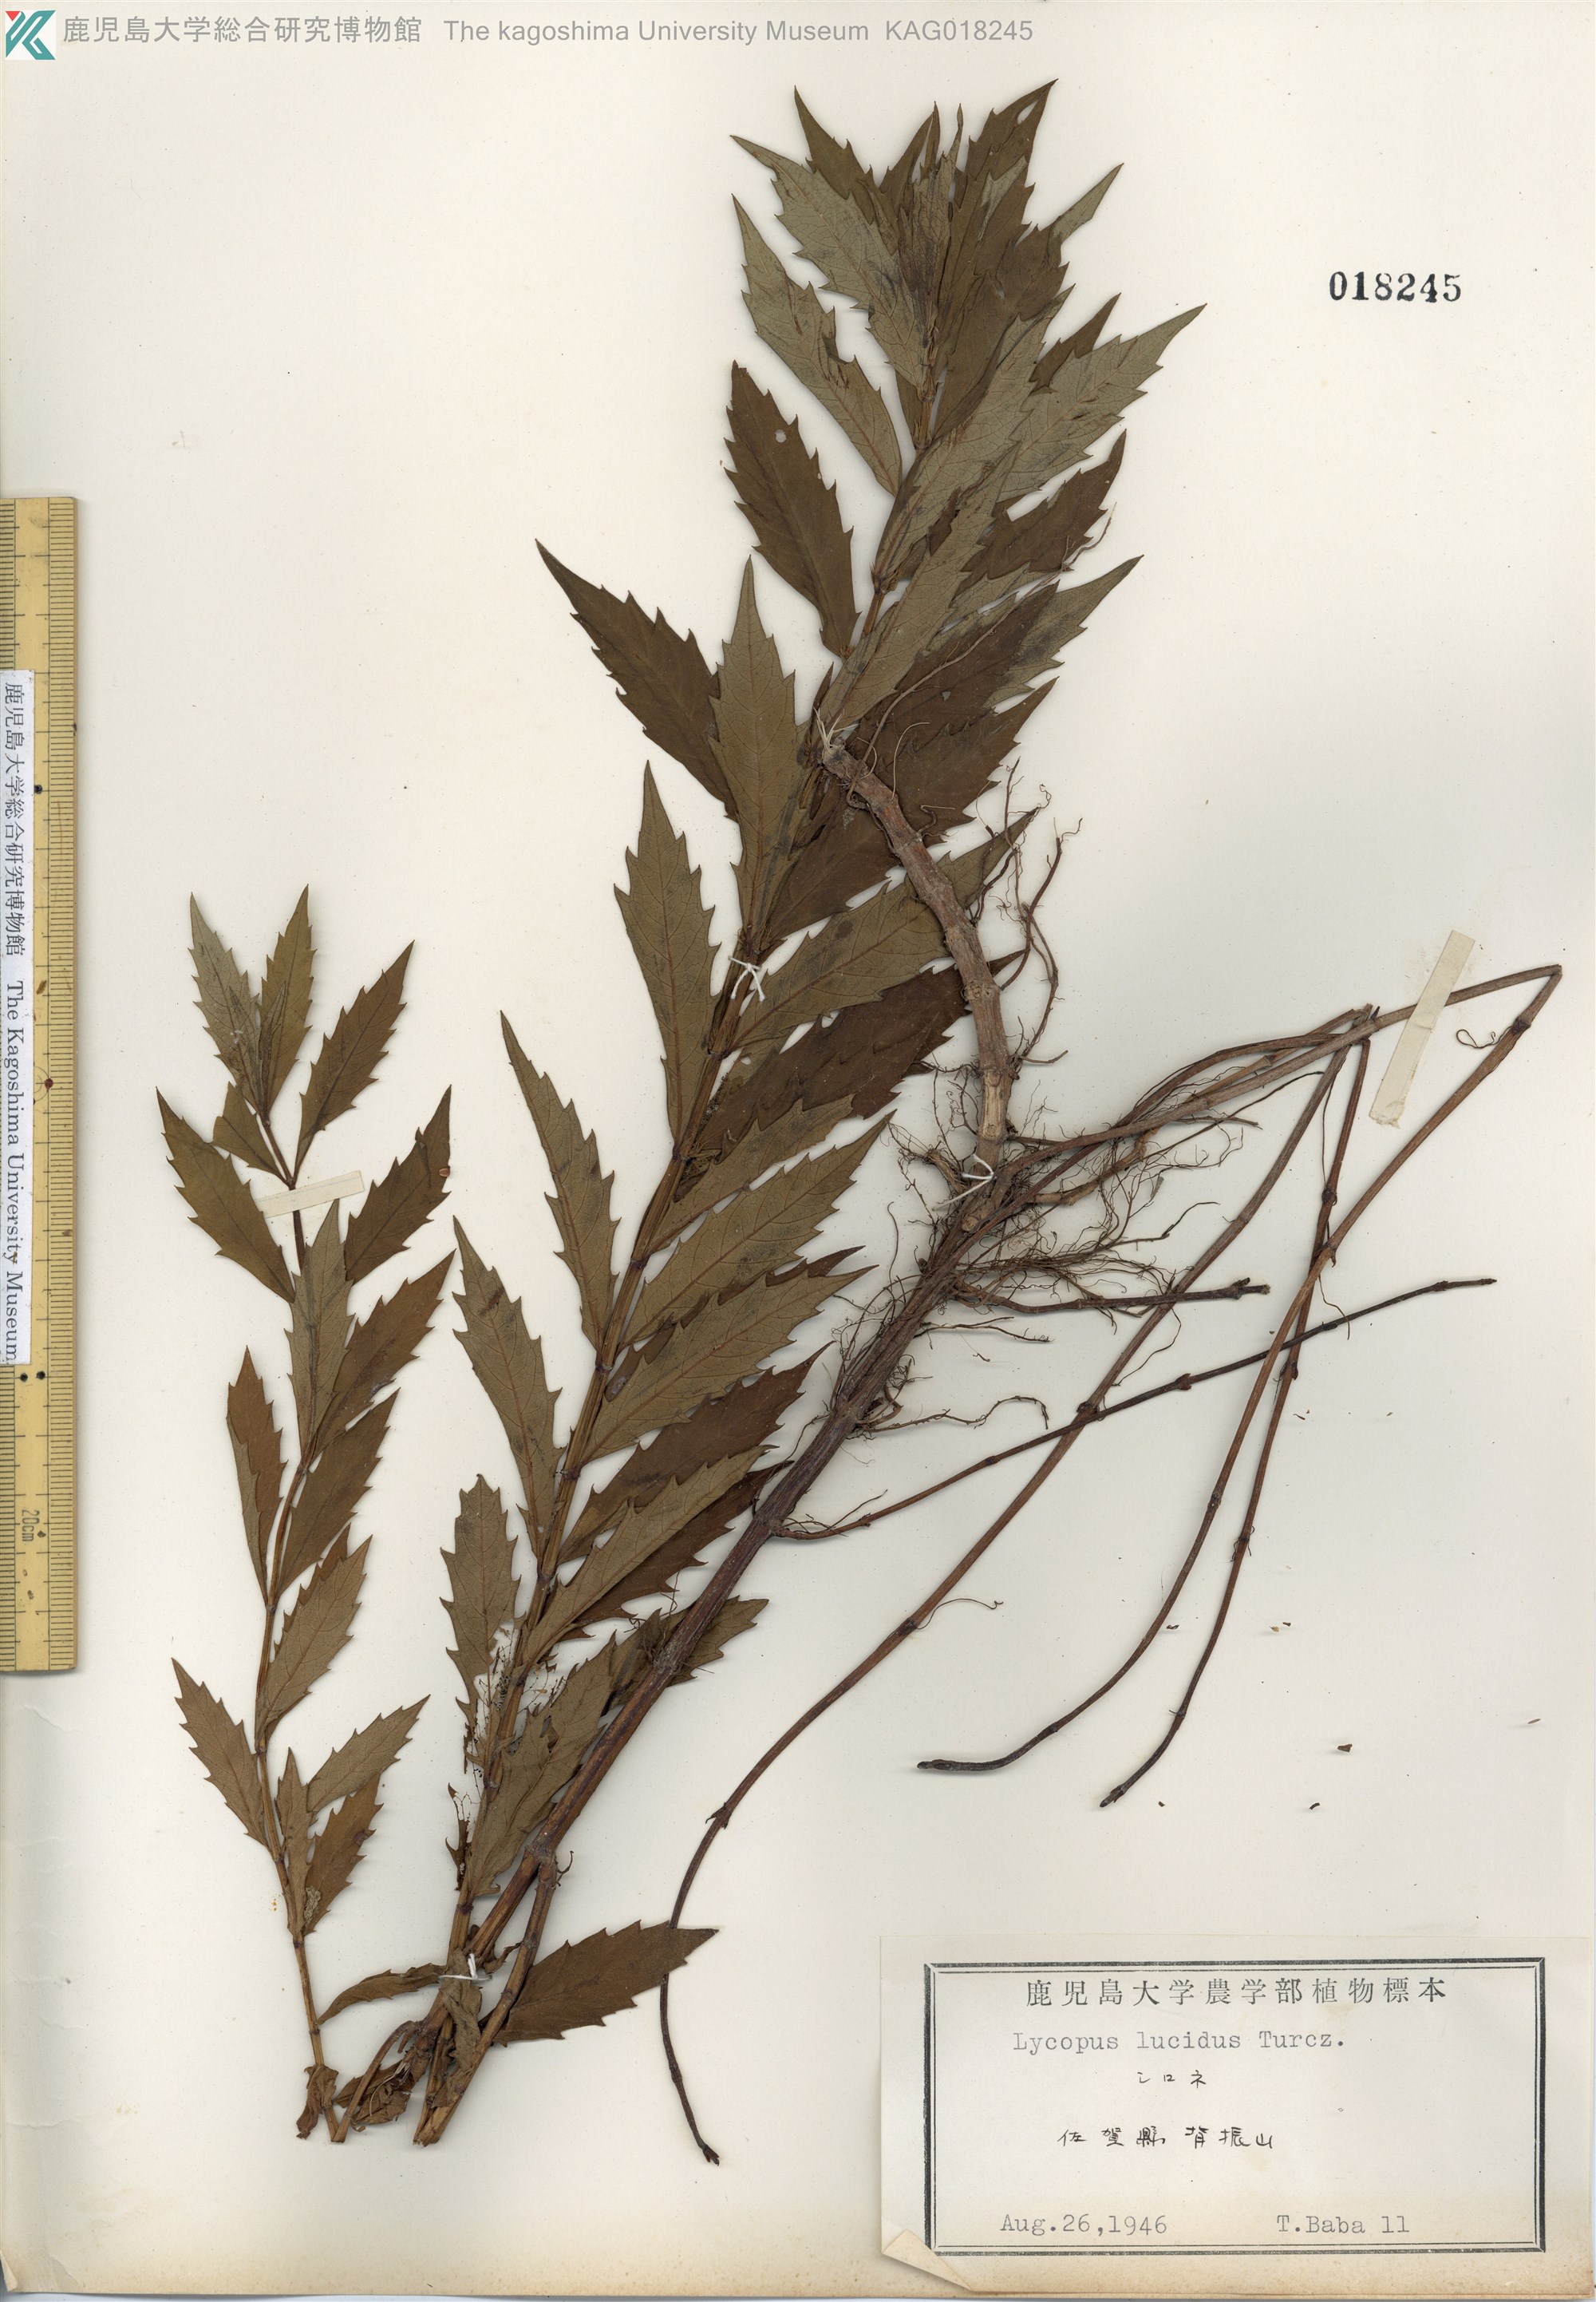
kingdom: Plantae
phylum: Tracheophyta
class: Magnoliopsida
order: Lamiales
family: Lamiaceae
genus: Lycopus
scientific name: Lycopus lucidus
